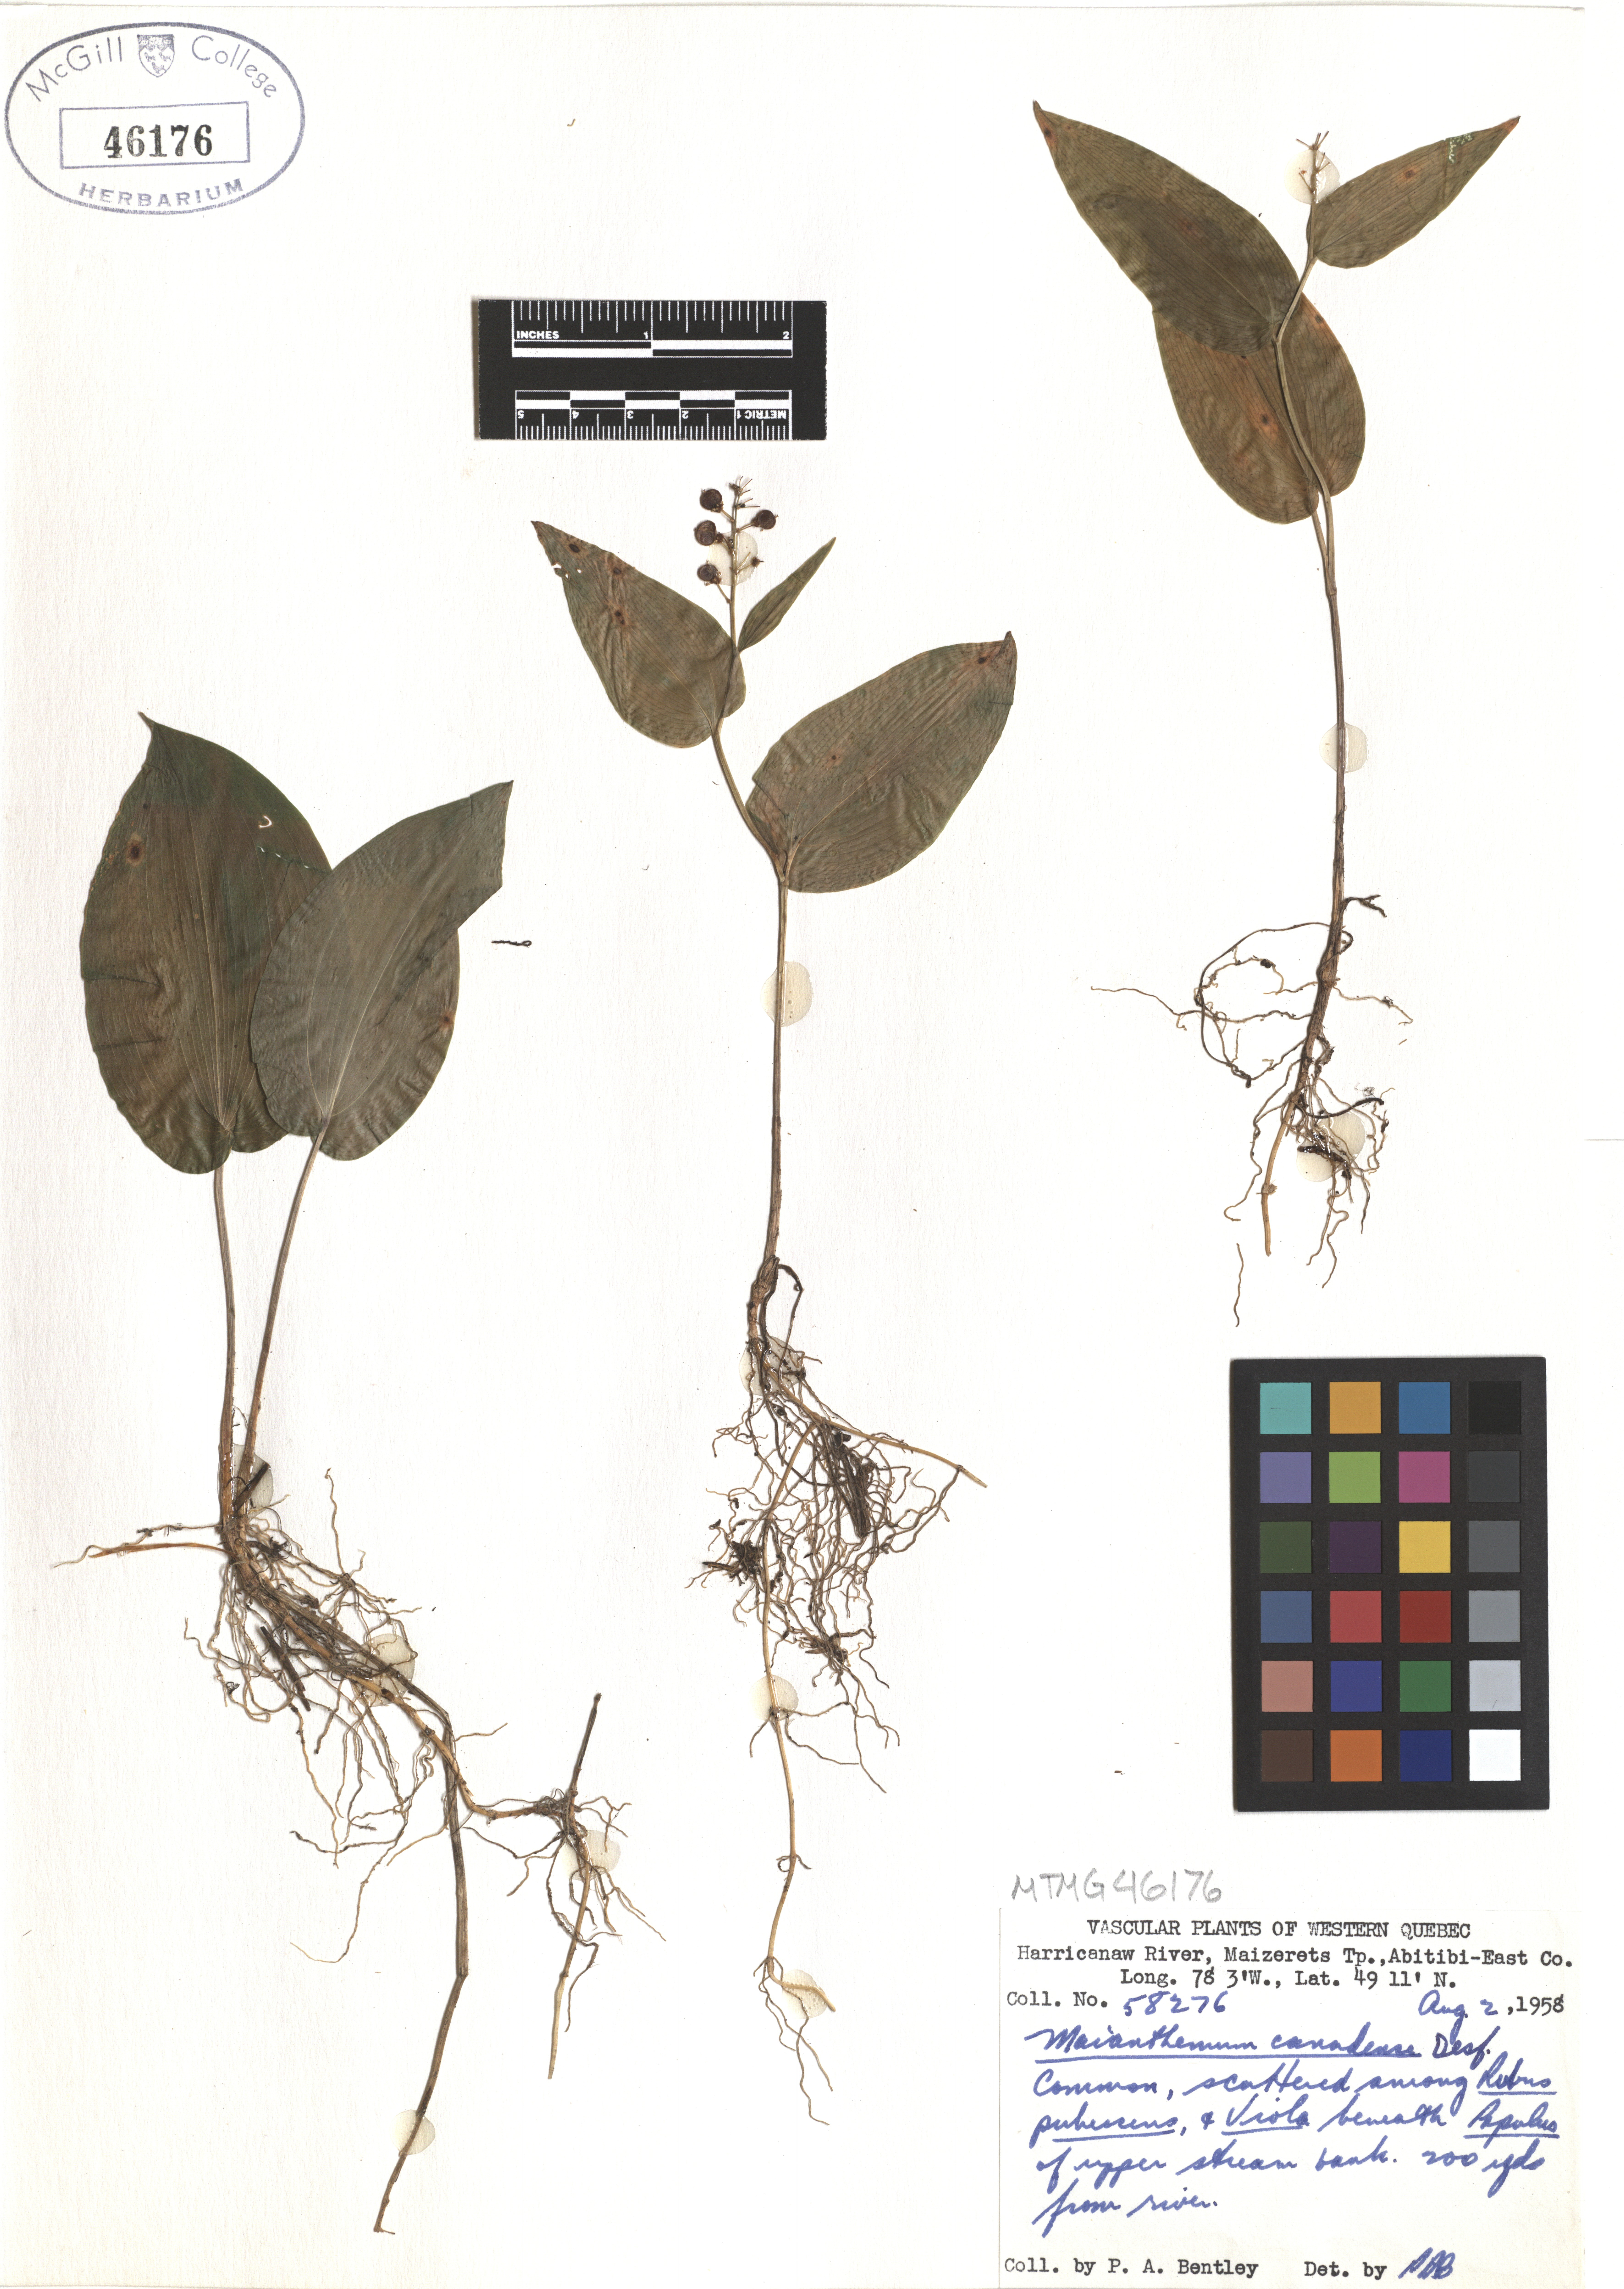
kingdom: Plantae
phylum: Tracheophyta
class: Liliopsida
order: Asparagales
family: Asparagaceae
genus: Maianthemum
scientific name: Maianthemum canadense
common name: False lily-of-the-valley
